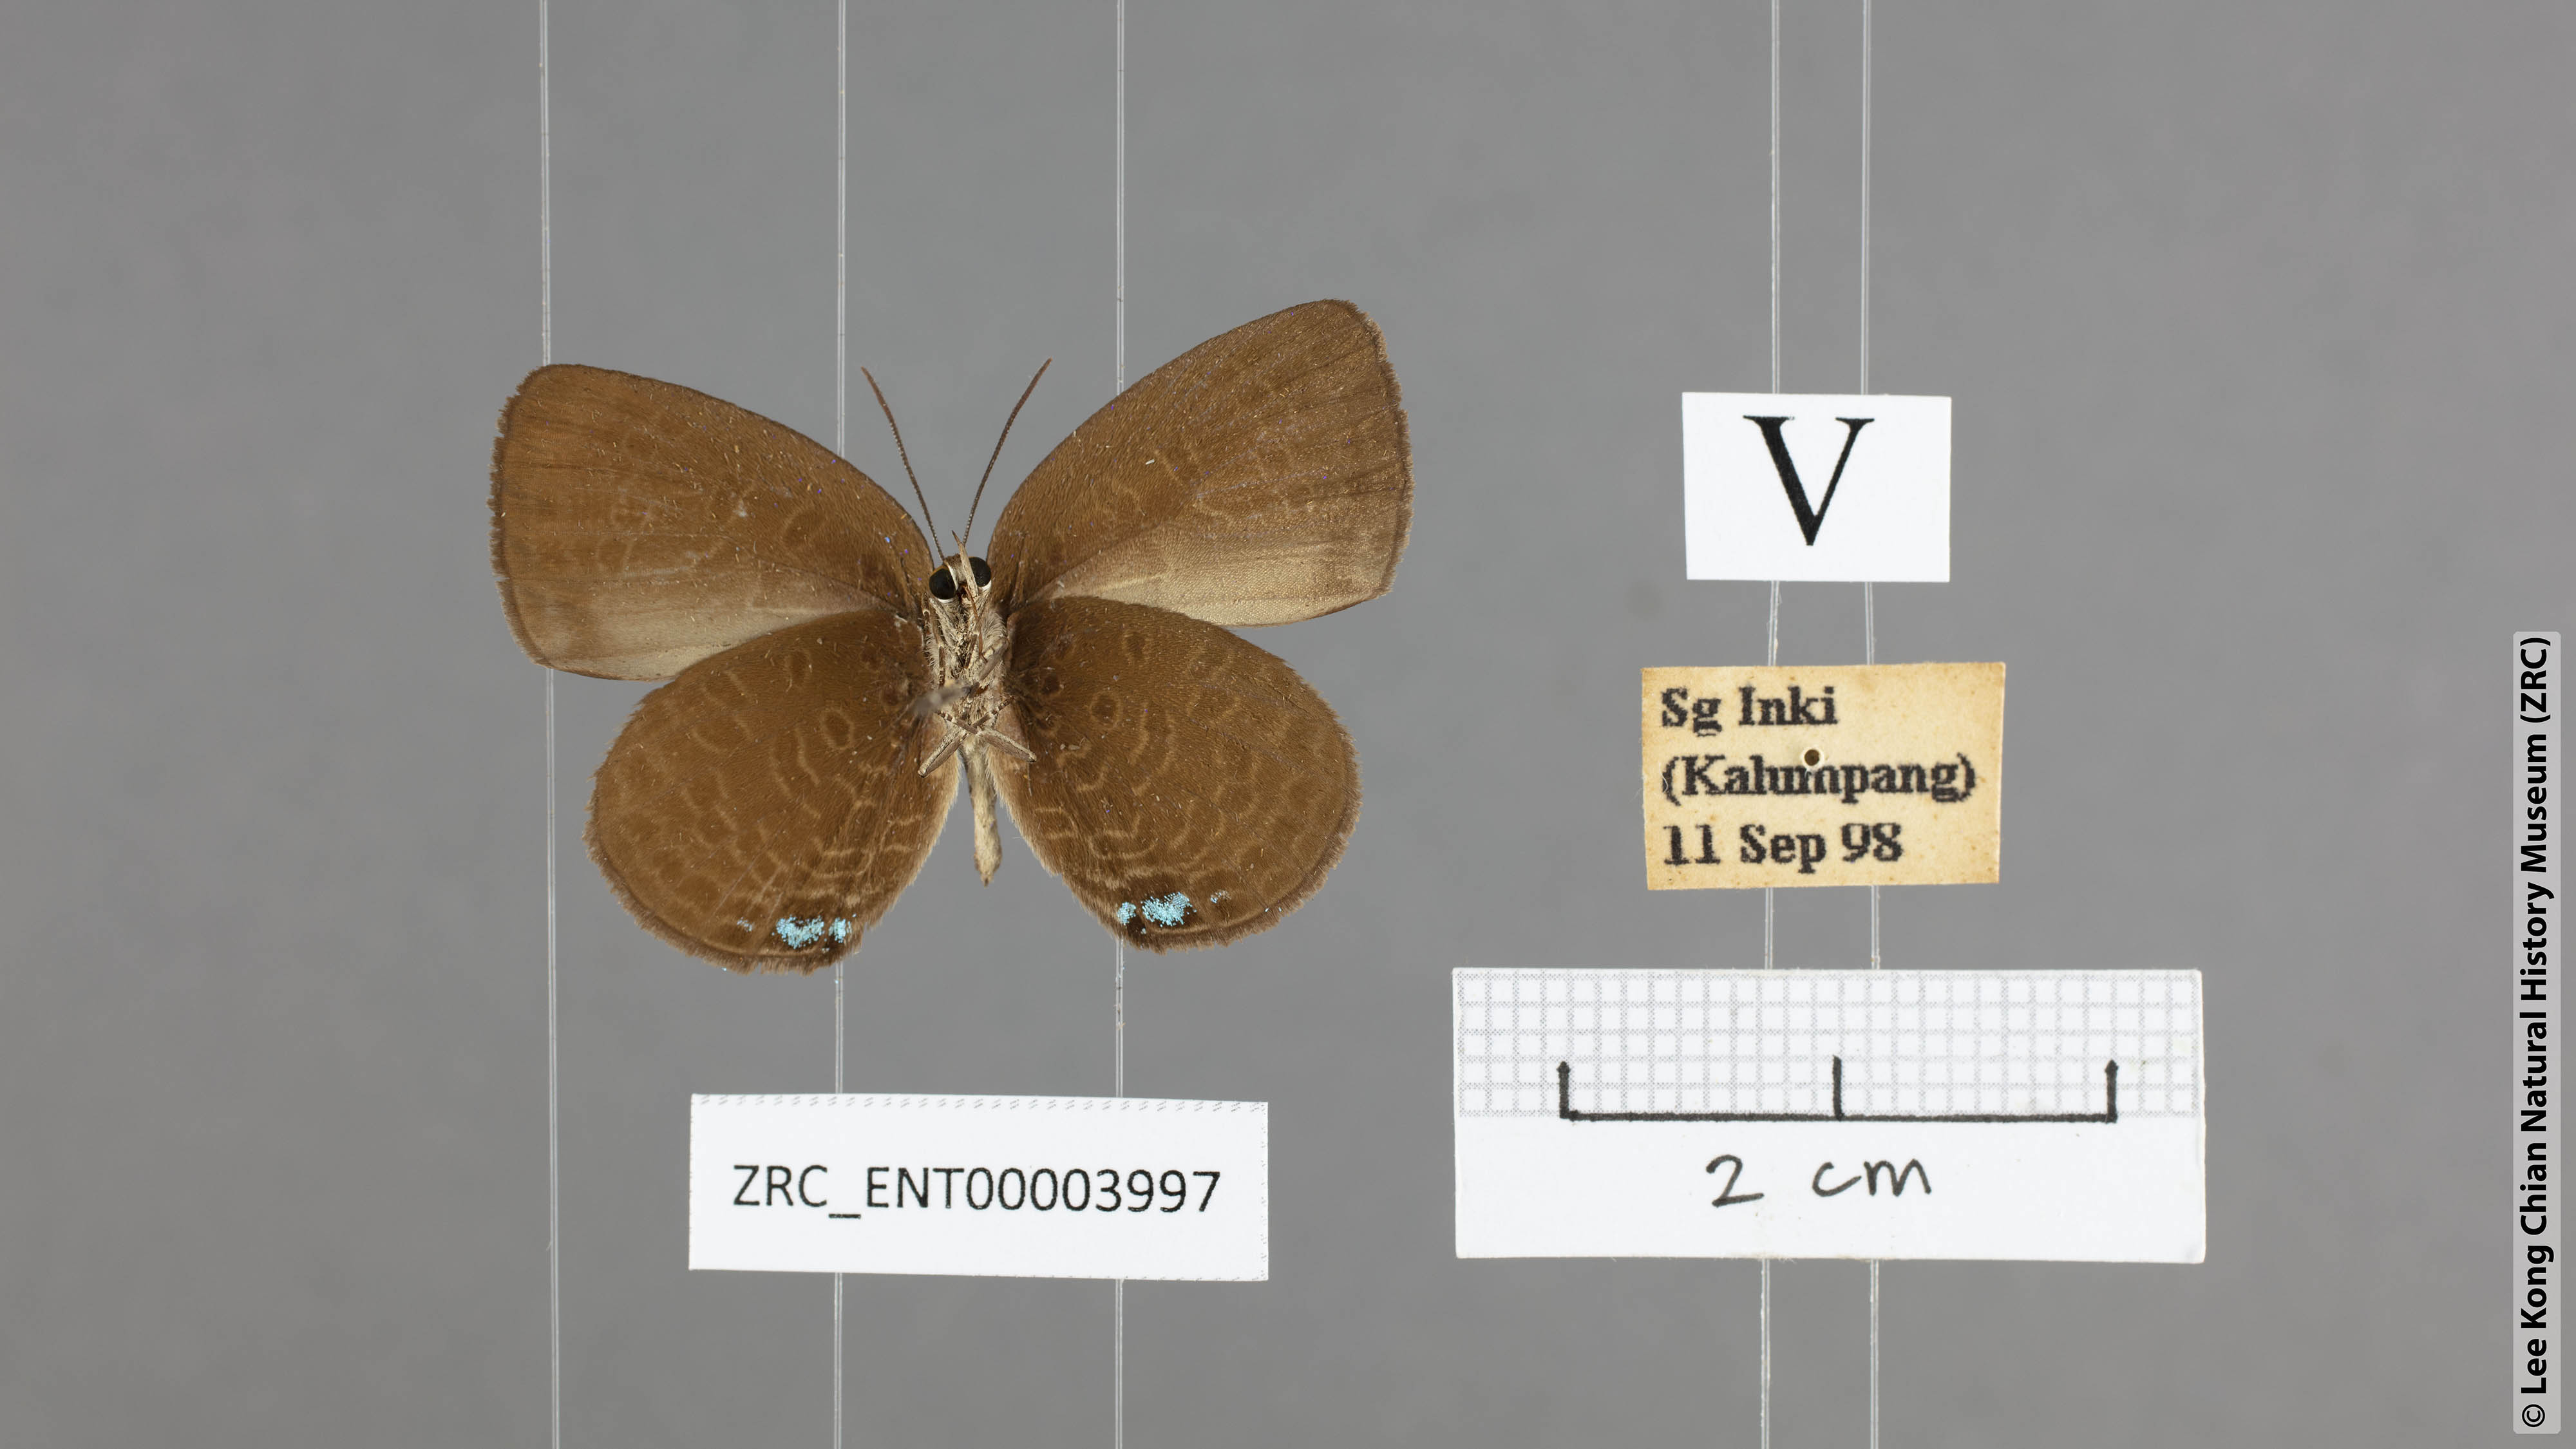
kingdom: Animalia
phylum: Arthropoda
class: Insecta
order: Lepidoptera
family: Lycaenidae
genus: Arhopala
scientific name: Arhopala metamuta
